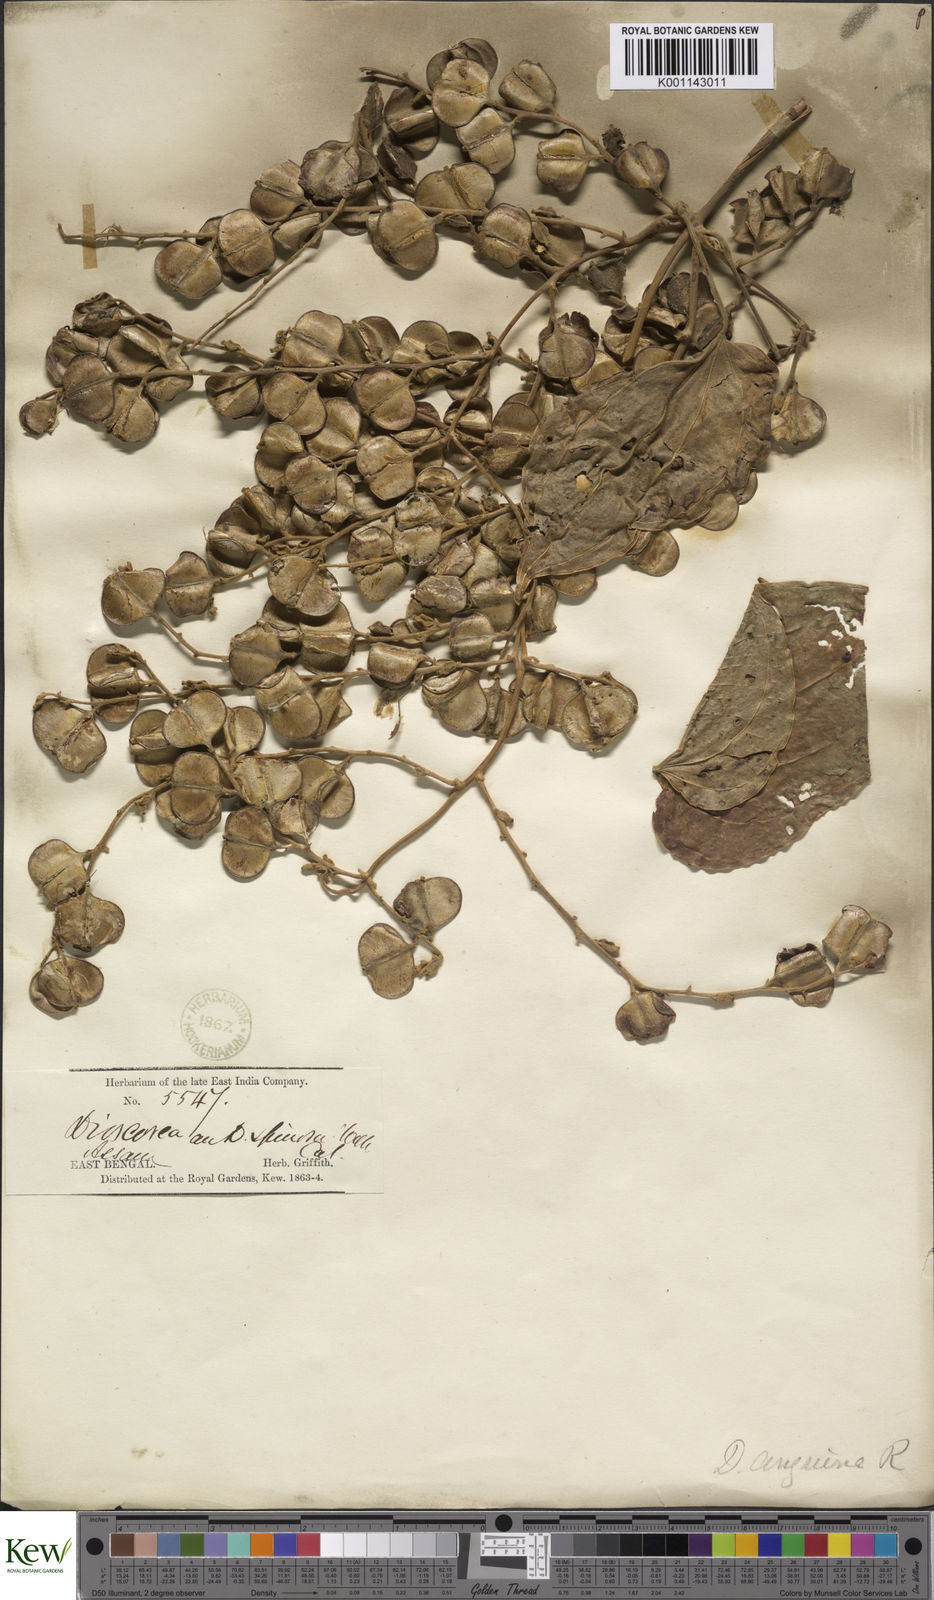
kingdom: Plantae
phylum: Tracheophyta
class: Liliopsida
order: Dioscoreales
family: Dioscoreaceae
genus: Dioscorea
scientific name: Dioscorea pubera
